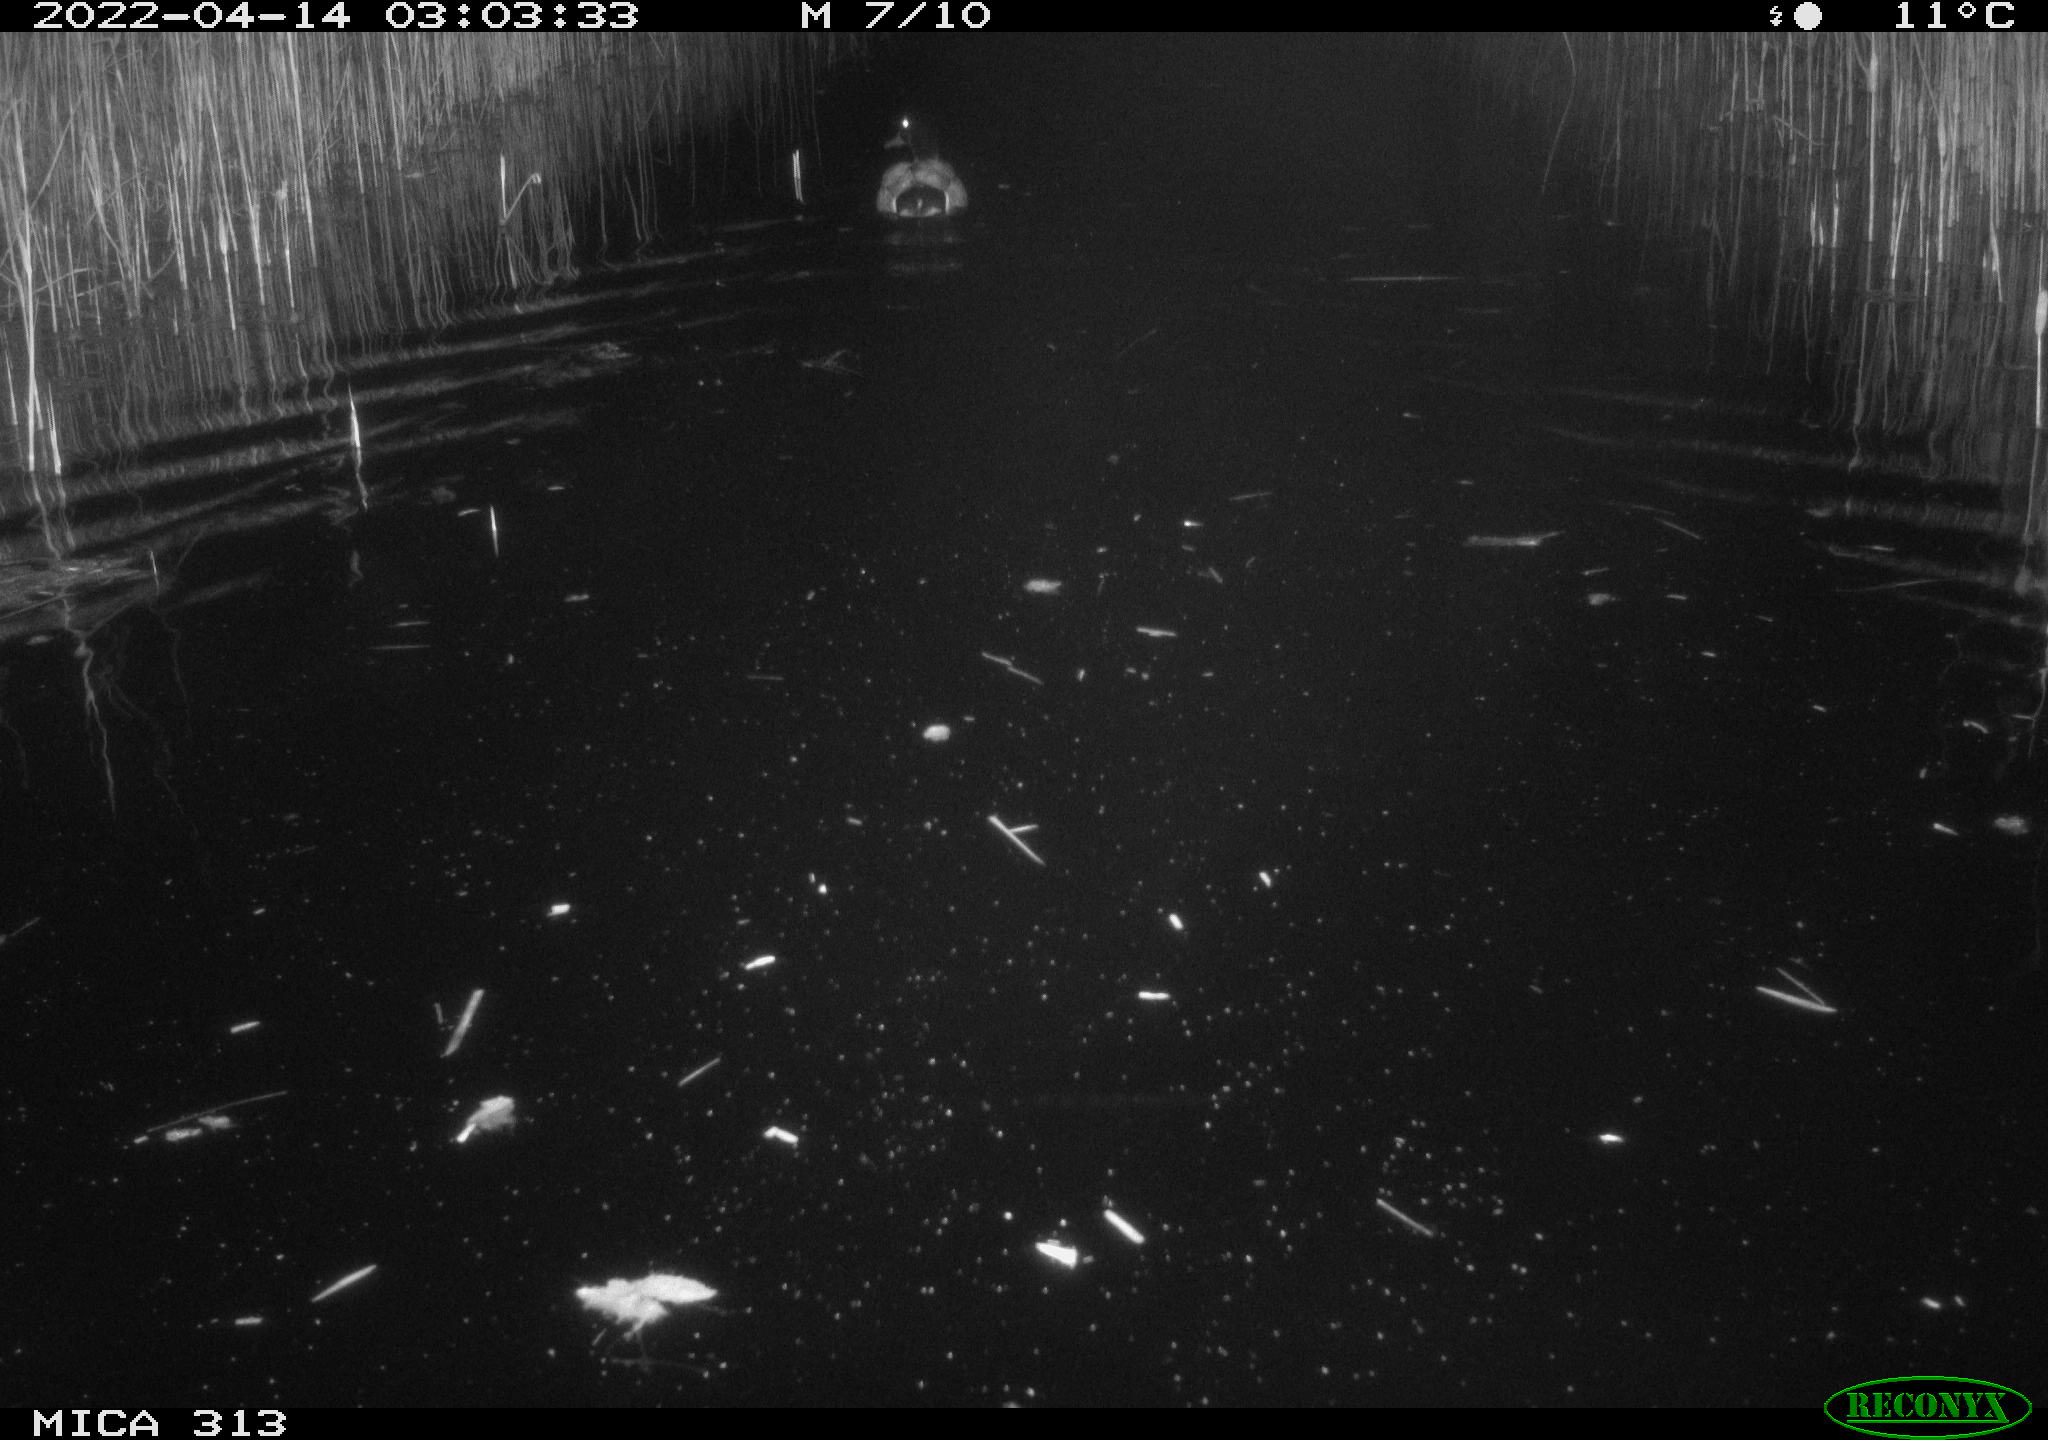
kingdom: Animalia
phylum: Chordata
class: Aves
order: Anseriformes
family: Anatidae
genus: Anas
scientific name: Anas platyrhynchos
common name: Mallard
